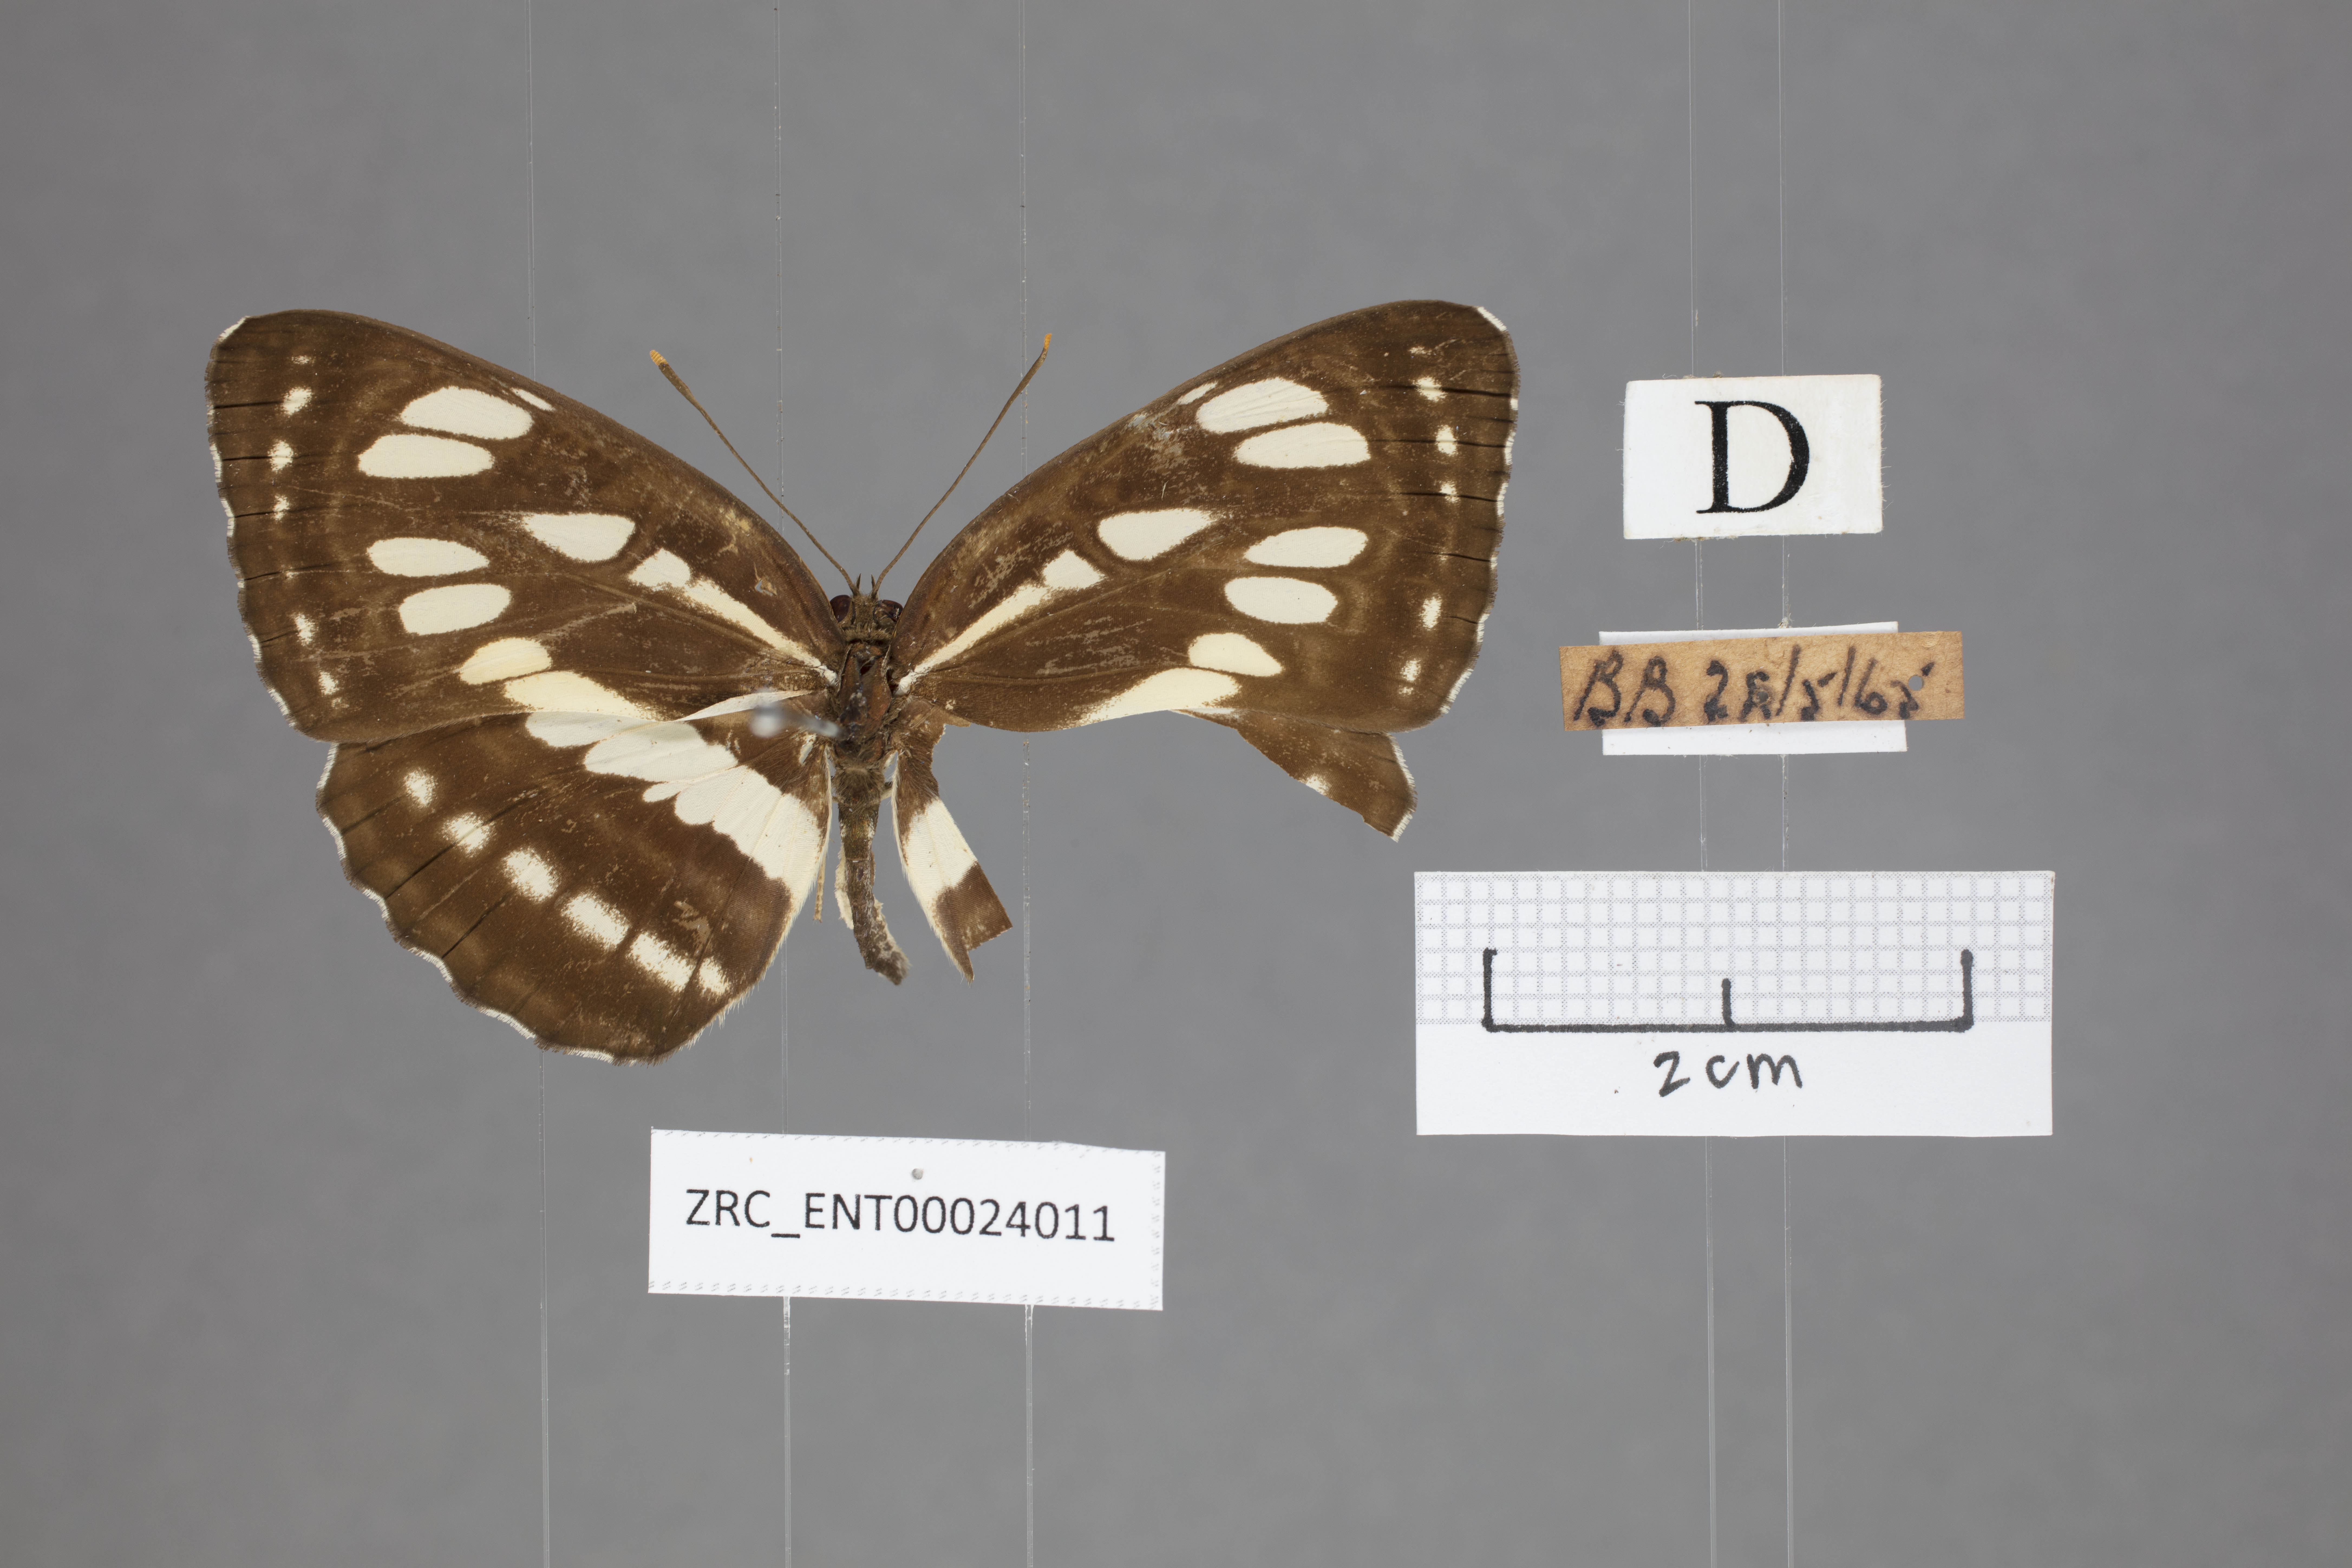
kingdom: Animalia
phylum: Arthropoda
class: Insecta
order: Lepidoptera
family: Nymphalidae
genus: Neptis
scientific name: Neptis hylas
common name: Common sailer
